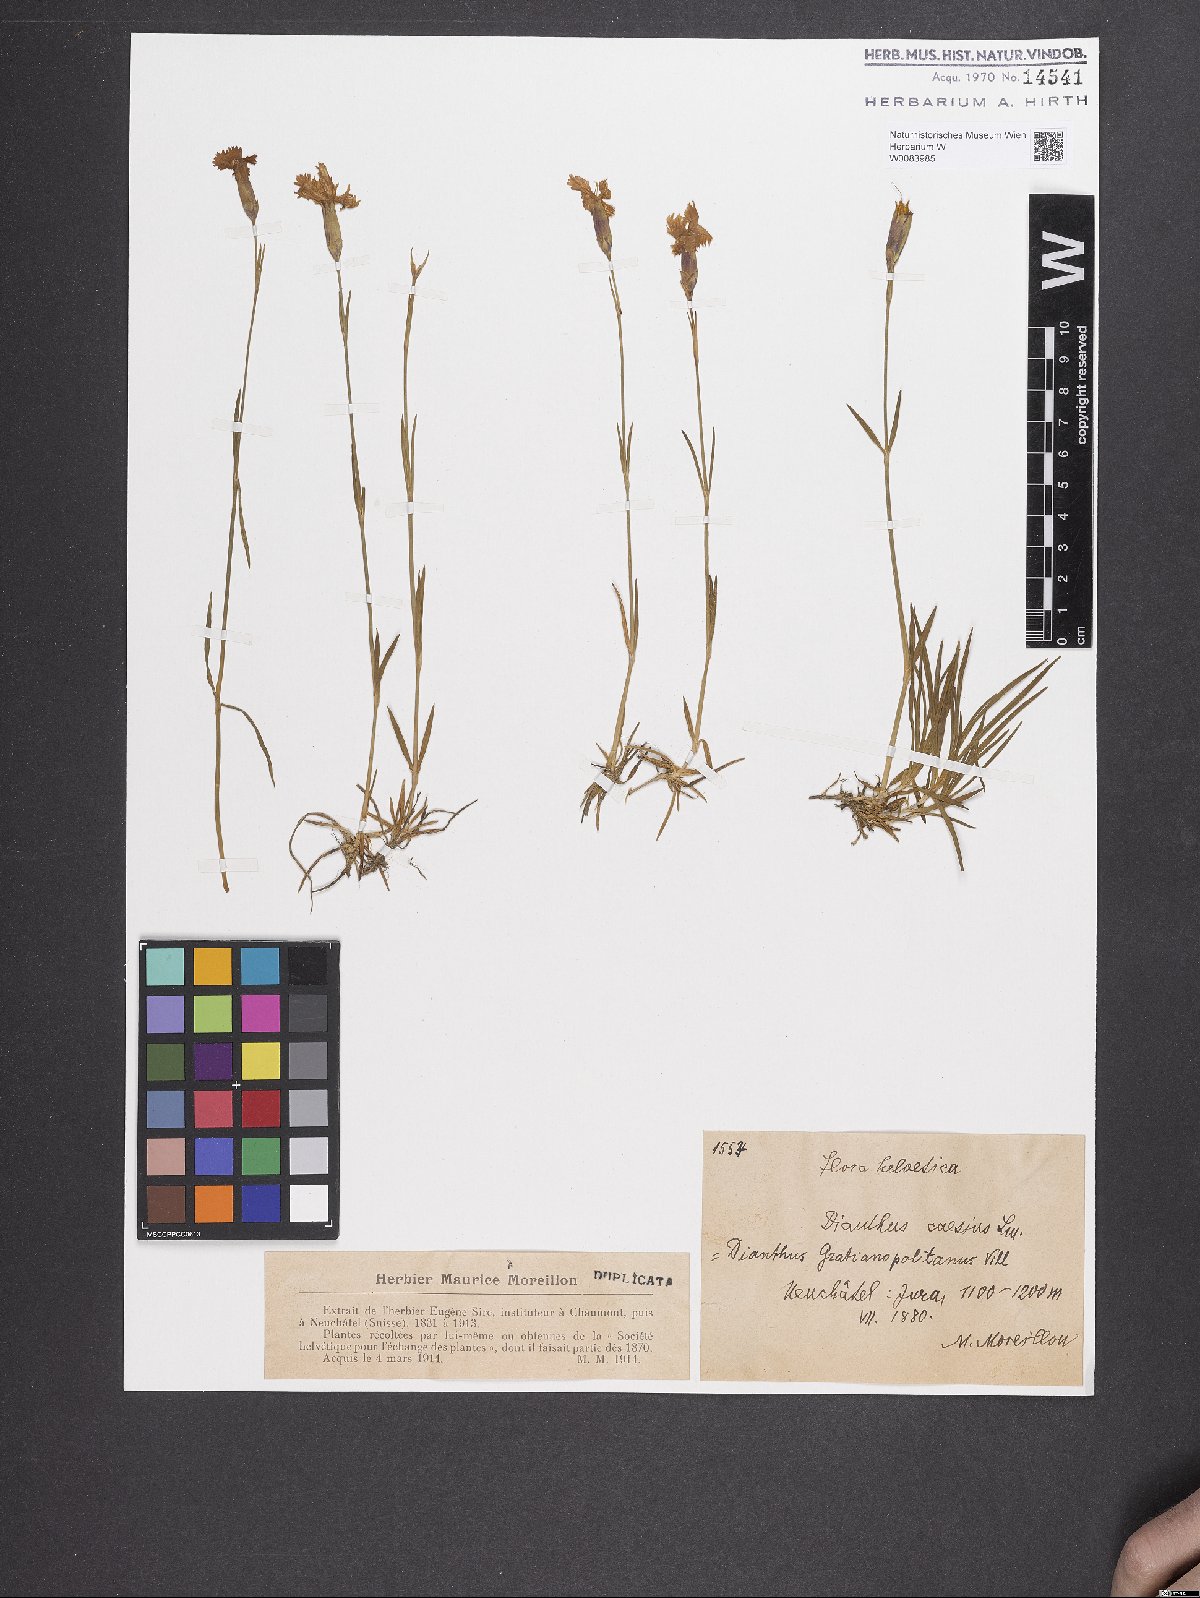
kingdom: Plantae
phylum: Tracheophyta
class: Magnoliopsida
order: Caryophyllales
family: Caryophyllaceae
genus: Dianthus
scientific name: Dianthus gratianopolitanus
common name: Cheddar pink
